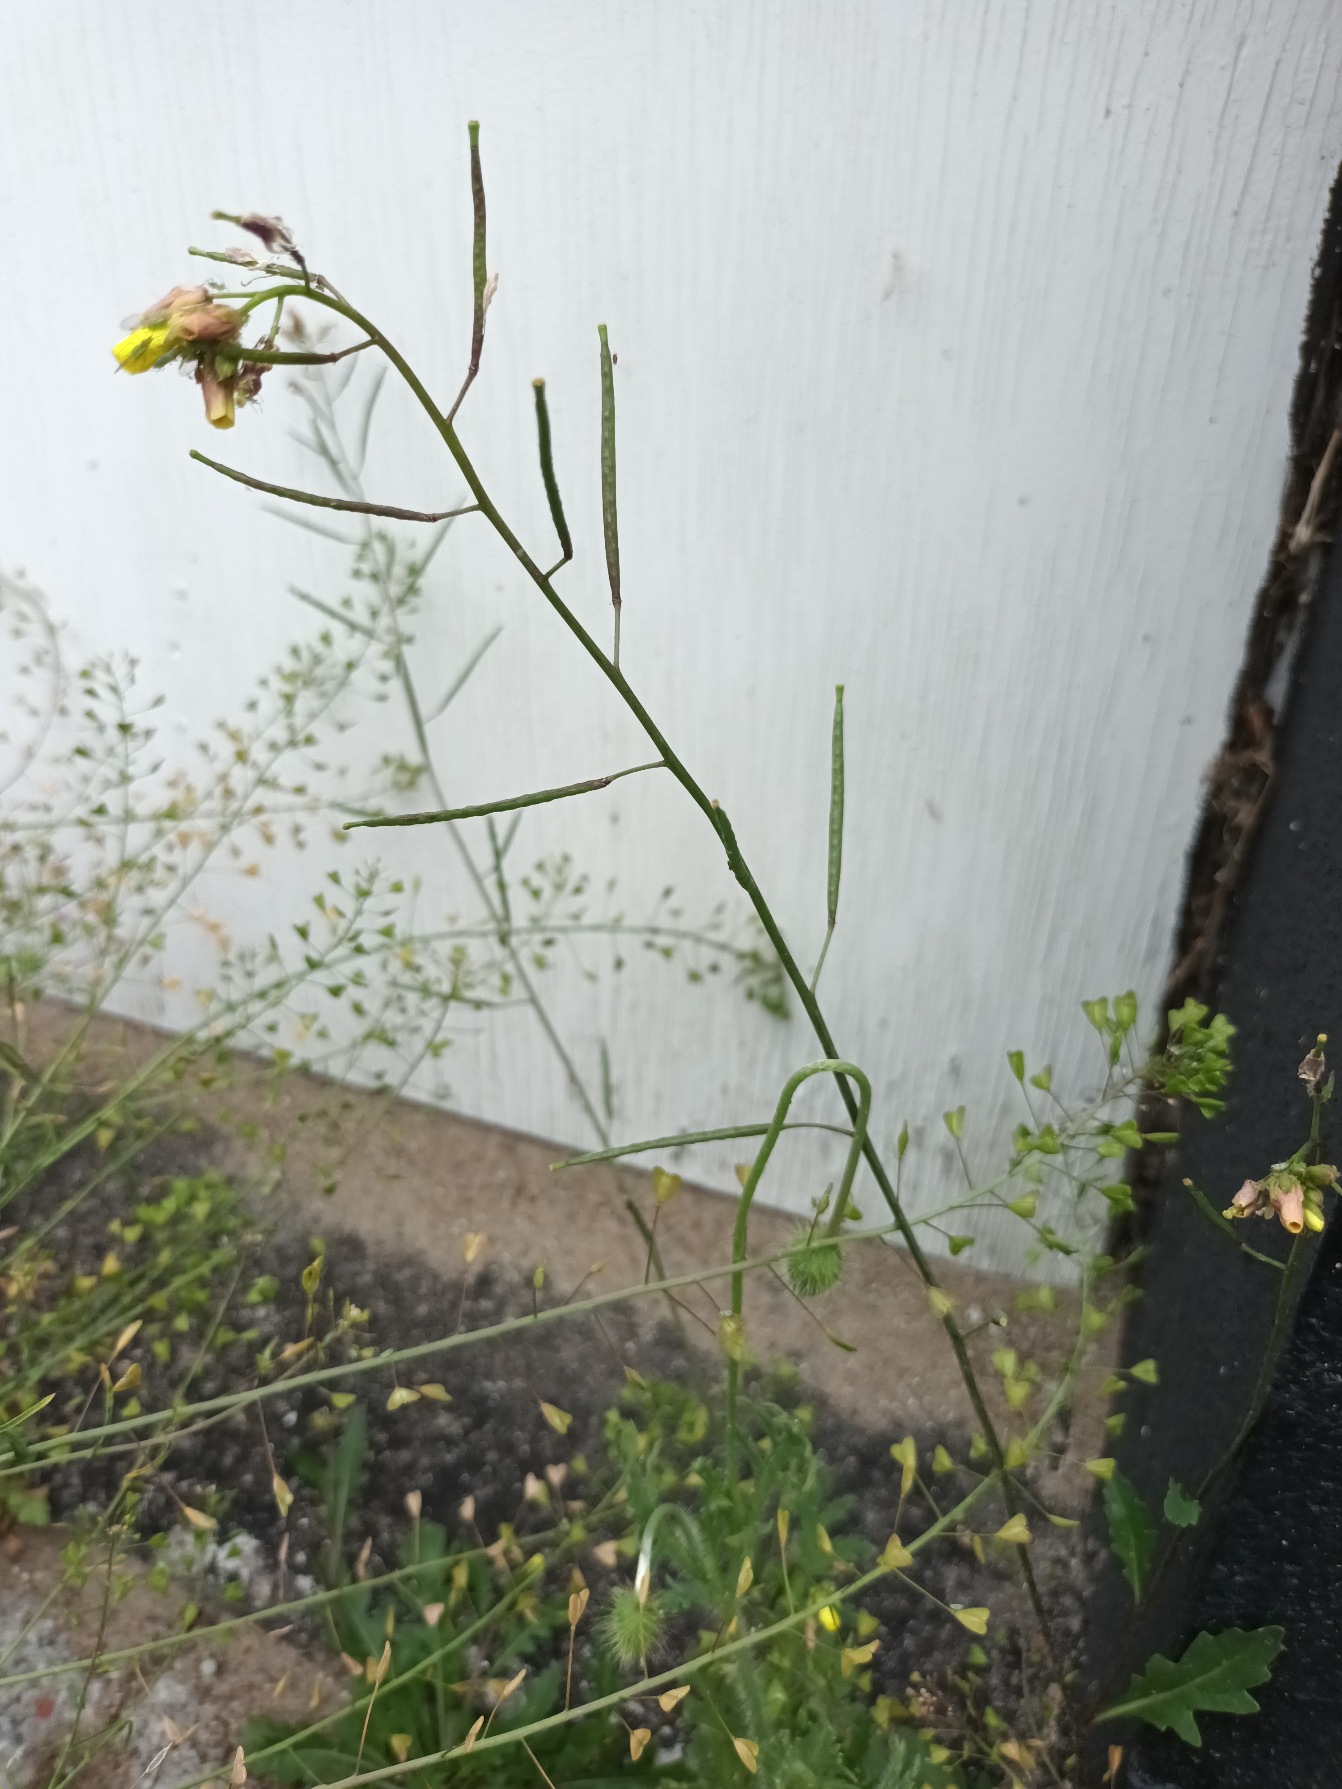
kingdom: Plantae
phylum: Tracheophyta
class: Magnoliopsida
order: Brassicales
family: Brassicaceae
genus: Diplotaxis
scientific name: Diplotaxis muralis
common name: Mursennep
